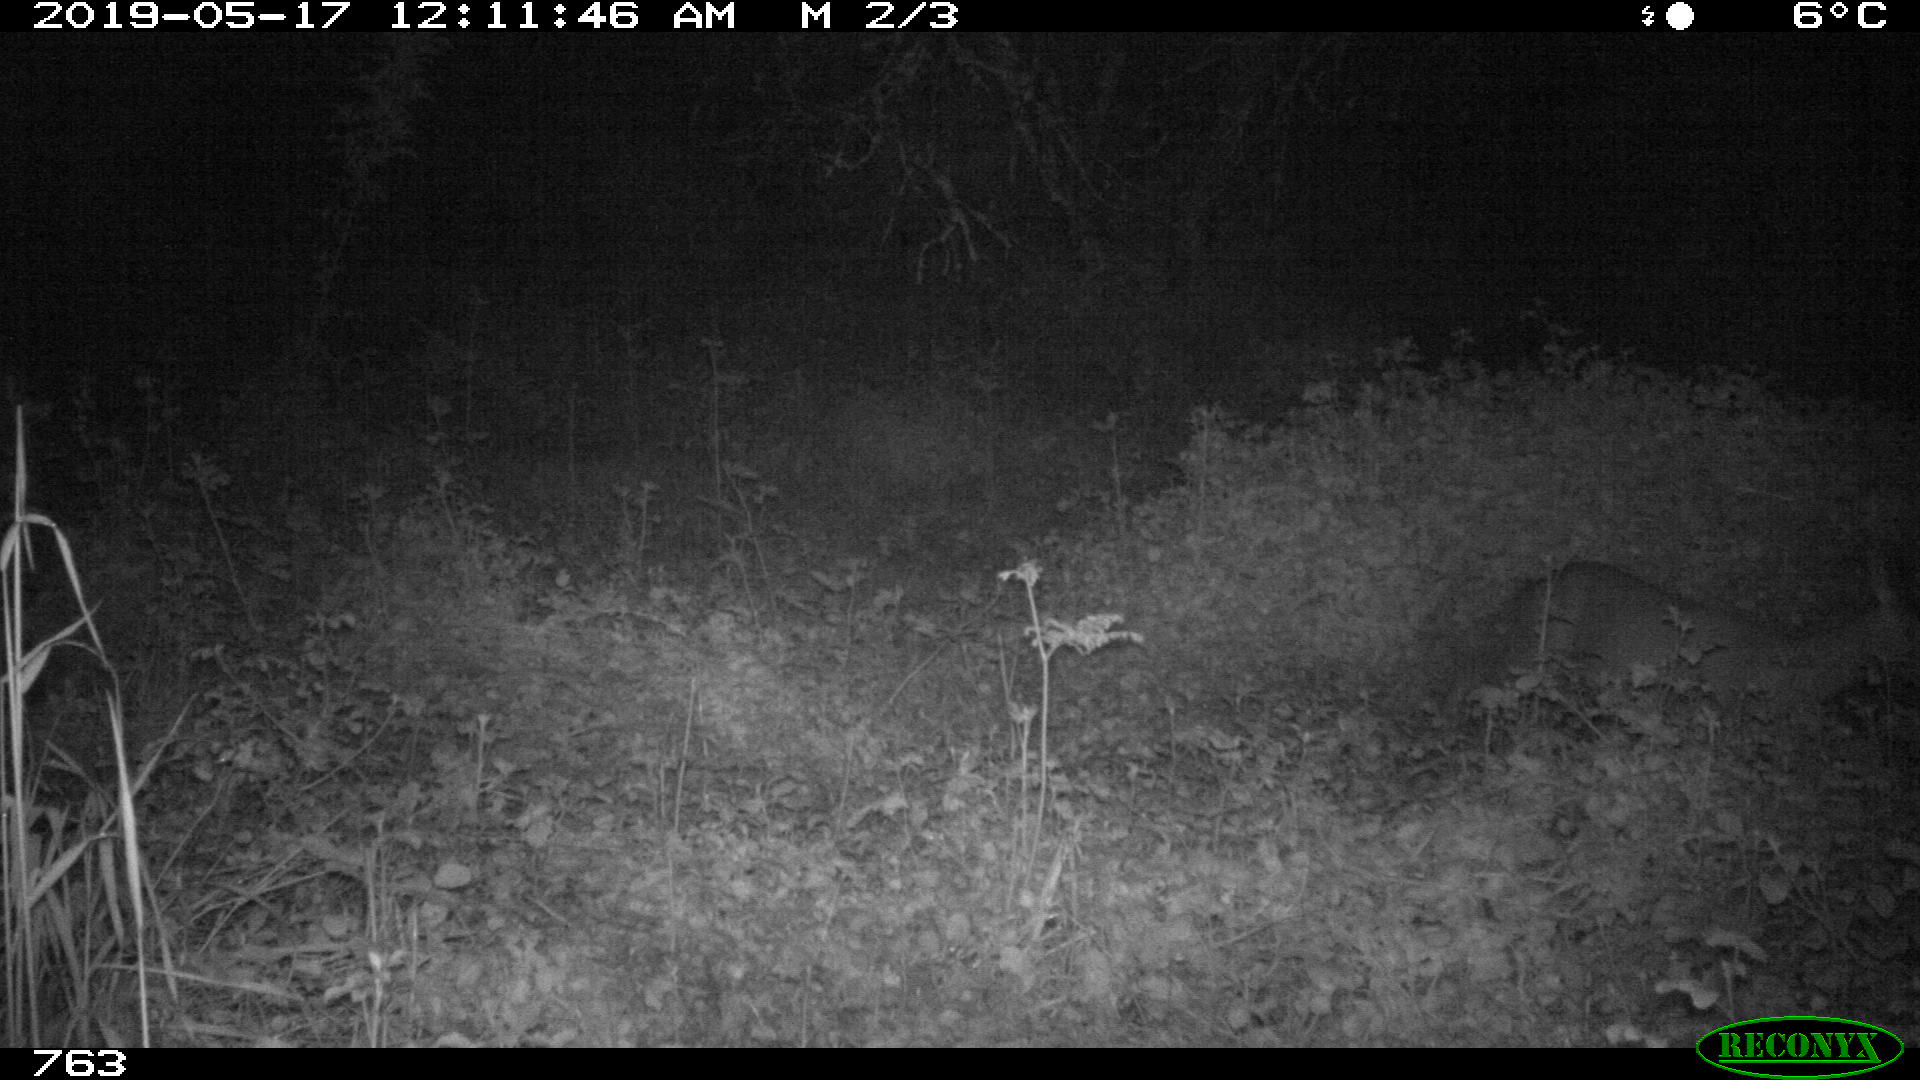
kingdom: Animalia
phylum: Chordata
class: Mammalia
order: Artiodactyla
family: Cervidae
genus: Capreolus
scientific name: Capreolus capreolus
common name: Western roe deer
